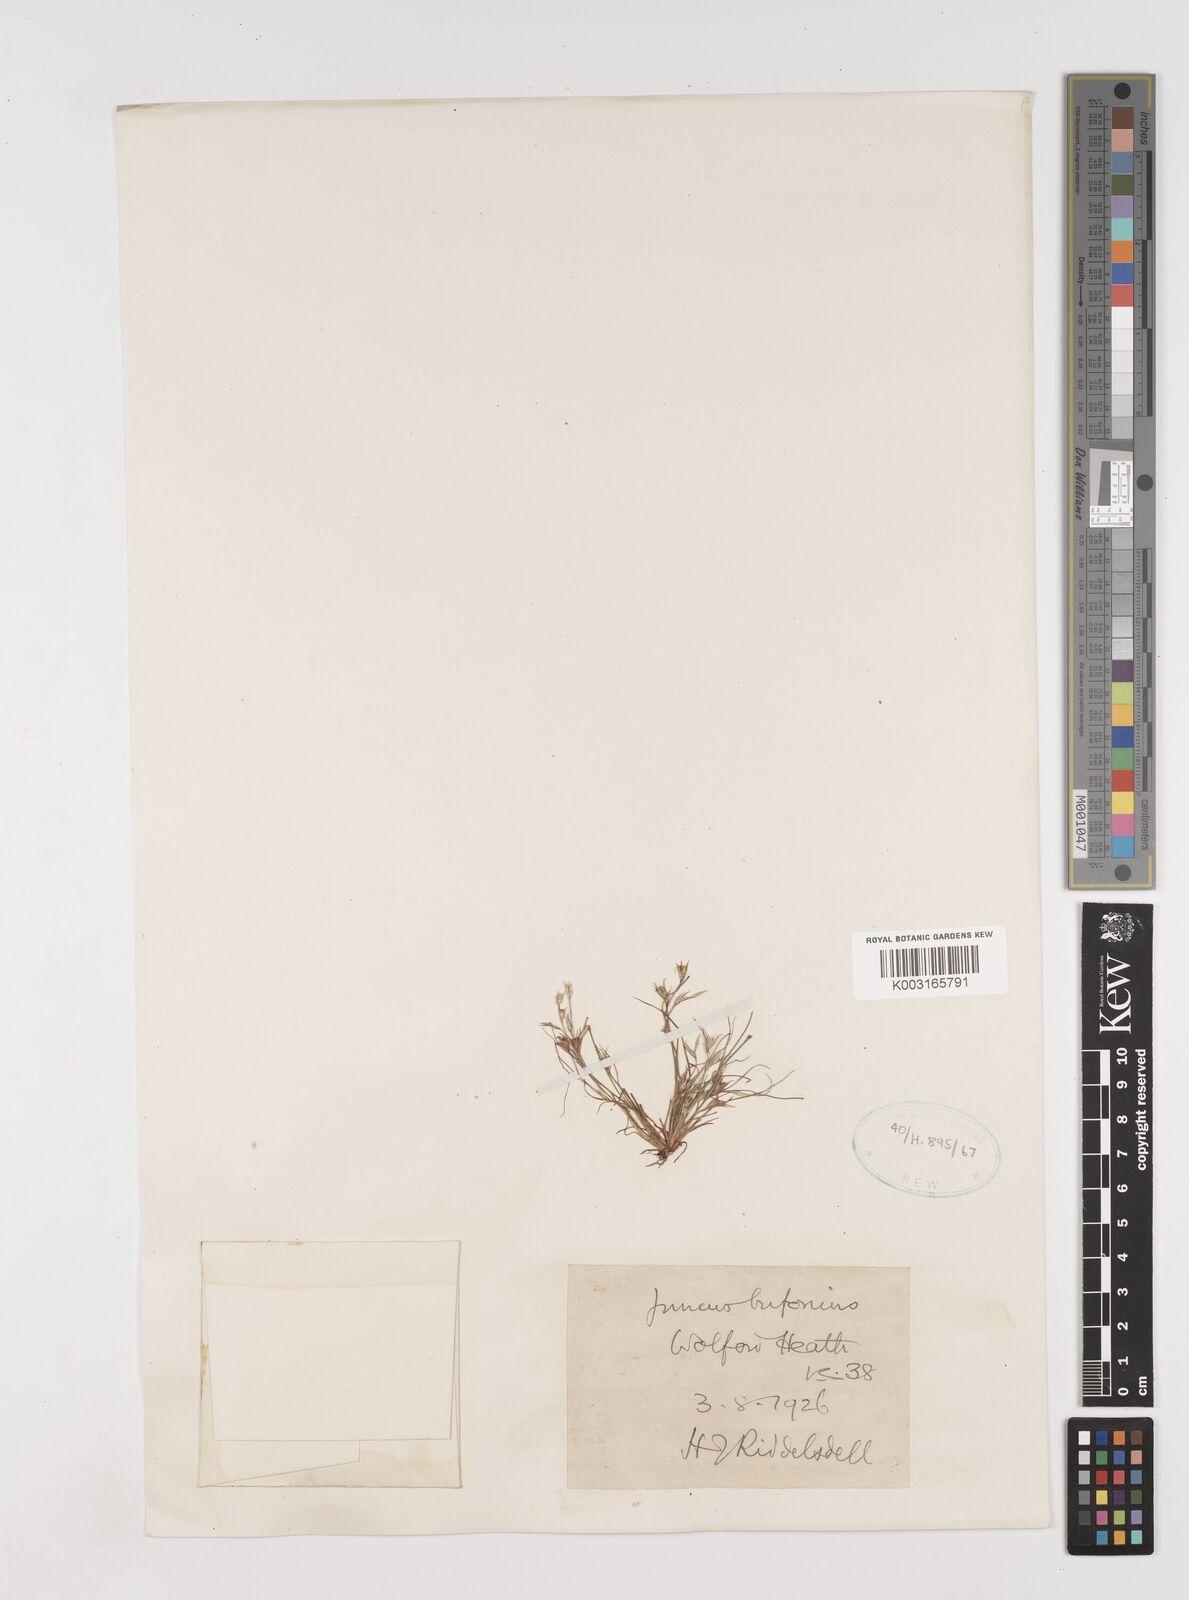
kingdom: Plantae
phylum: Tracheophyta
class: Liliopsida
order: Poales
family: Juncaceae
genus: Juncus
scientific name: Juncus bufonius
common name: Toad rush
